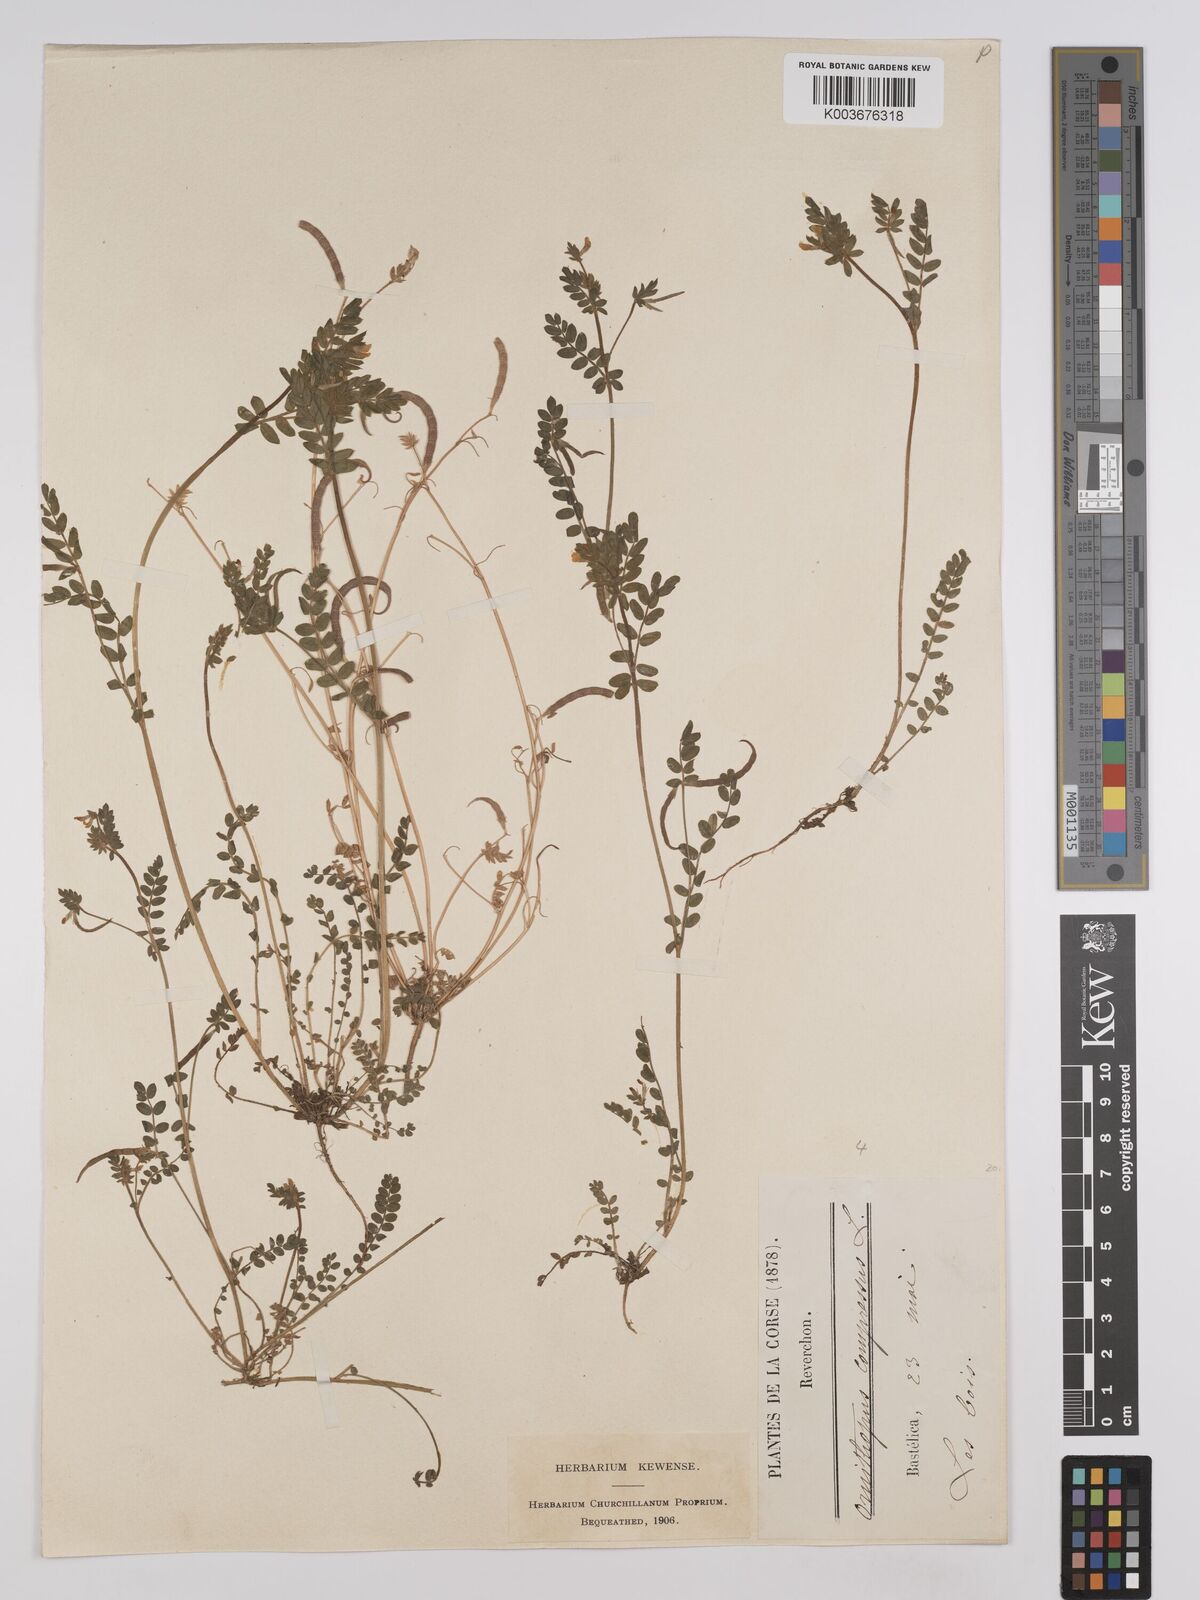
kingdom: Plantae
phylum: Tracheophyta
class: Magnoliopsida
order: Fabales
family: Fabaceae
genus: Ornithopus
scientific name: Ornithopus compressus
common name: Yellow serradella
